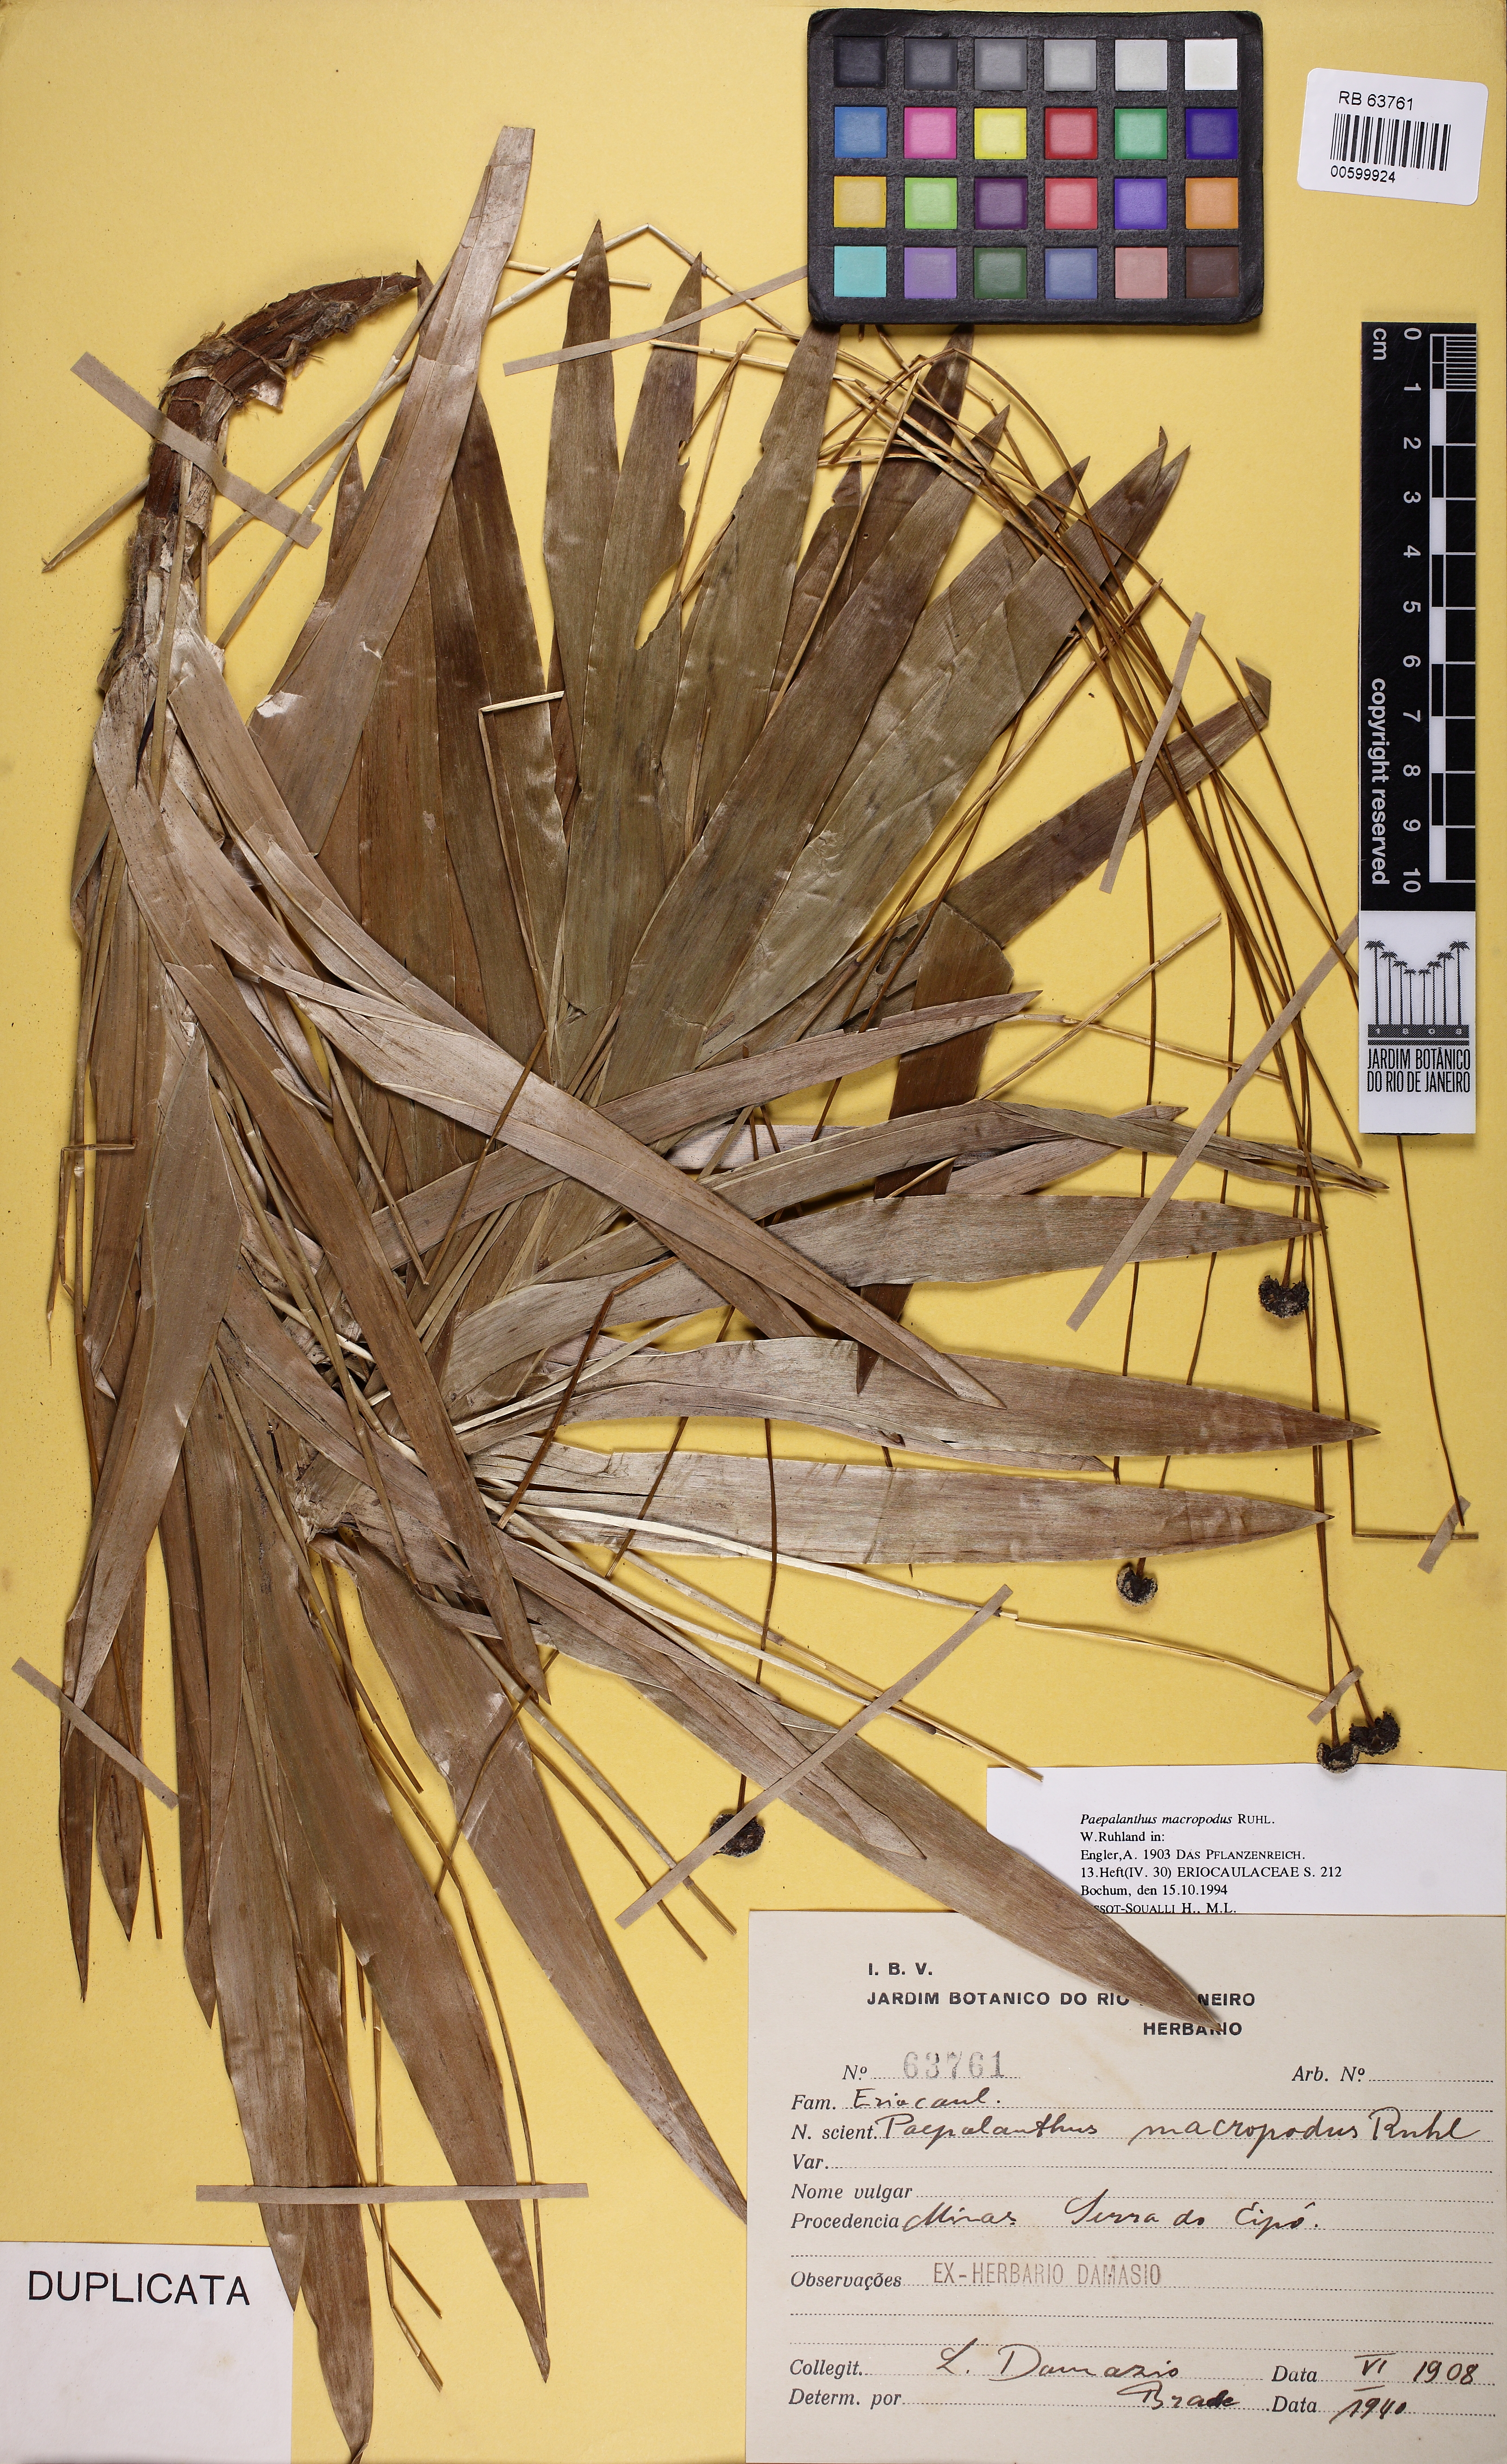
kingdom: Plantae
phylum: Tracheophyta
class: Liliopsida
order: Poales
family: Eriocaulaceae
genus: Paepalanthus
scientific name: Paepalanthus macropodus
